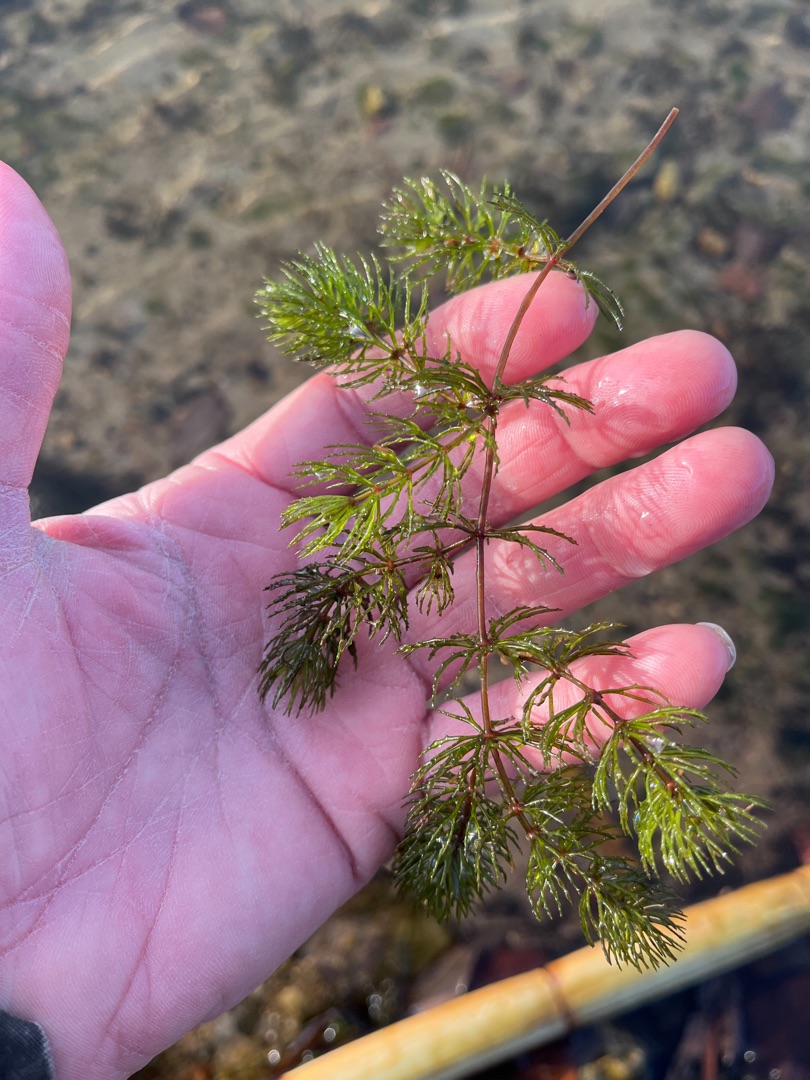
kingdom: Plantae
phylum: Tracheophyta
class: Magnoliopsida
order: Ceratophyllales
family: Ceratophyllaceae
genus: Ceratophyllum
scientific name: Ceratophyllum demersum
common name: Tornfrøet hornblad
